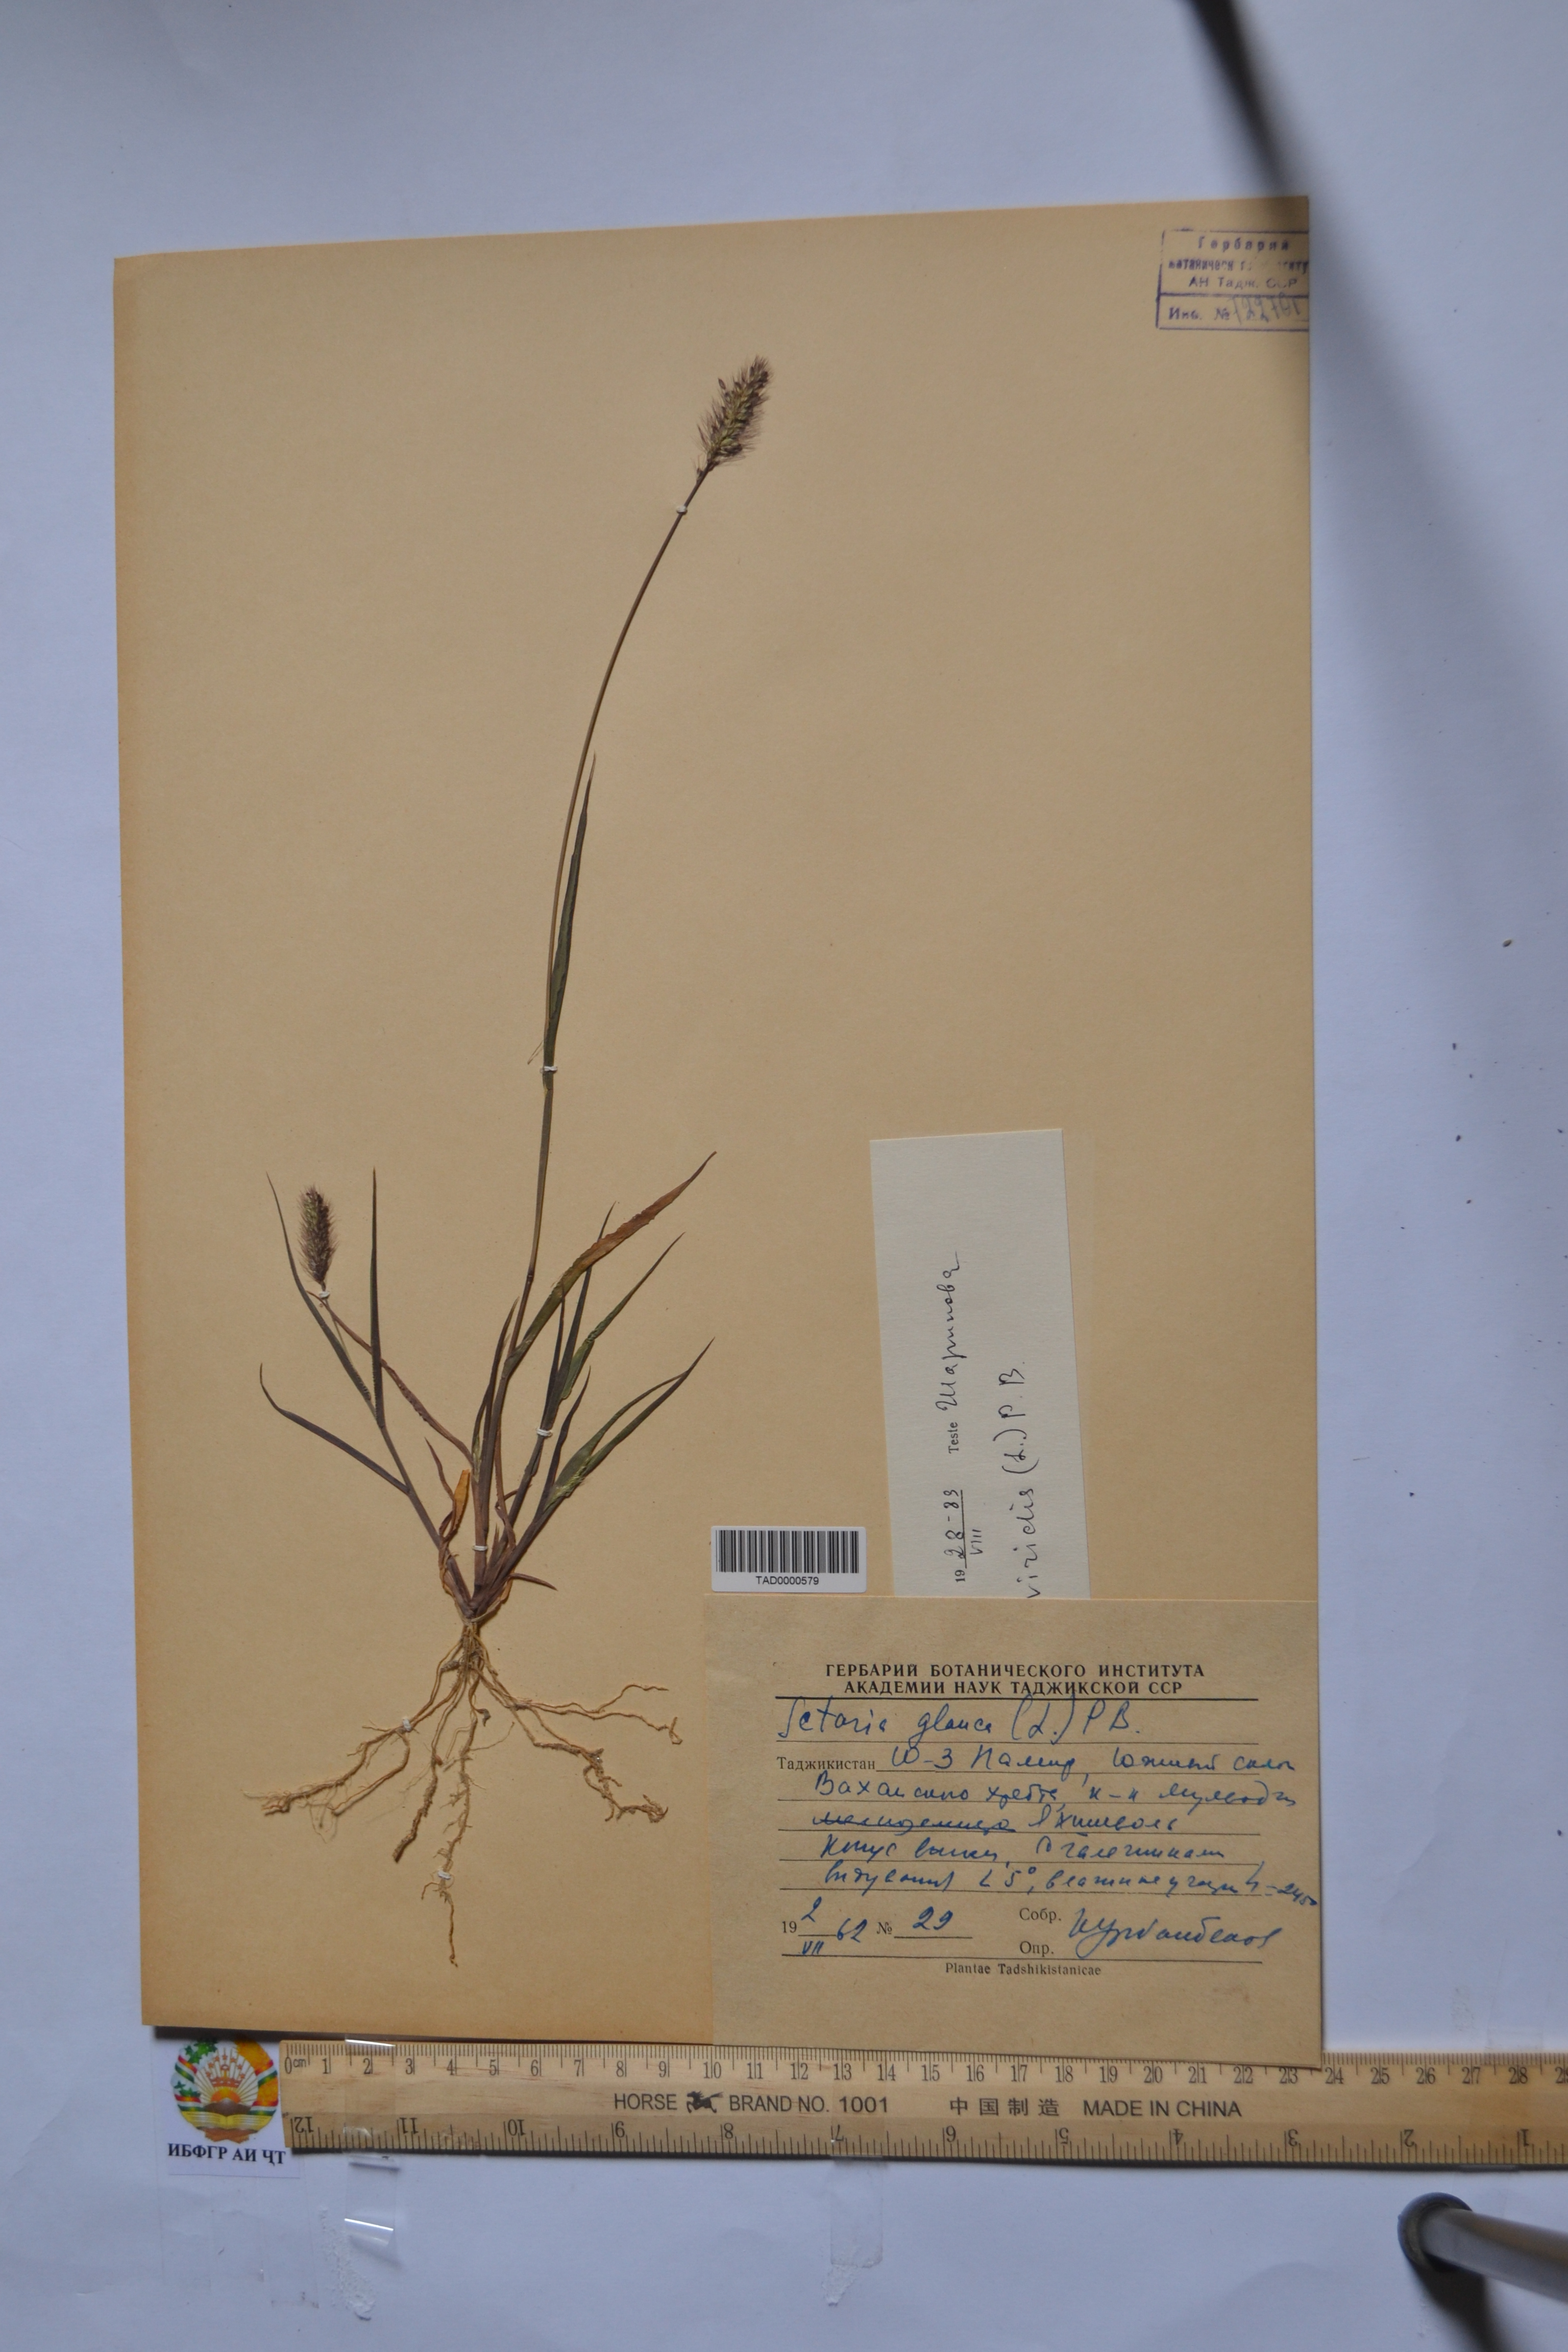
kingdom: Plantae
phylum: Tracheophyta
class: Liliopsida
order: Poales
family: Poaceae
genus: Cenchrus
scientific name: Cenchrus americanus
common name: Pearl millet
